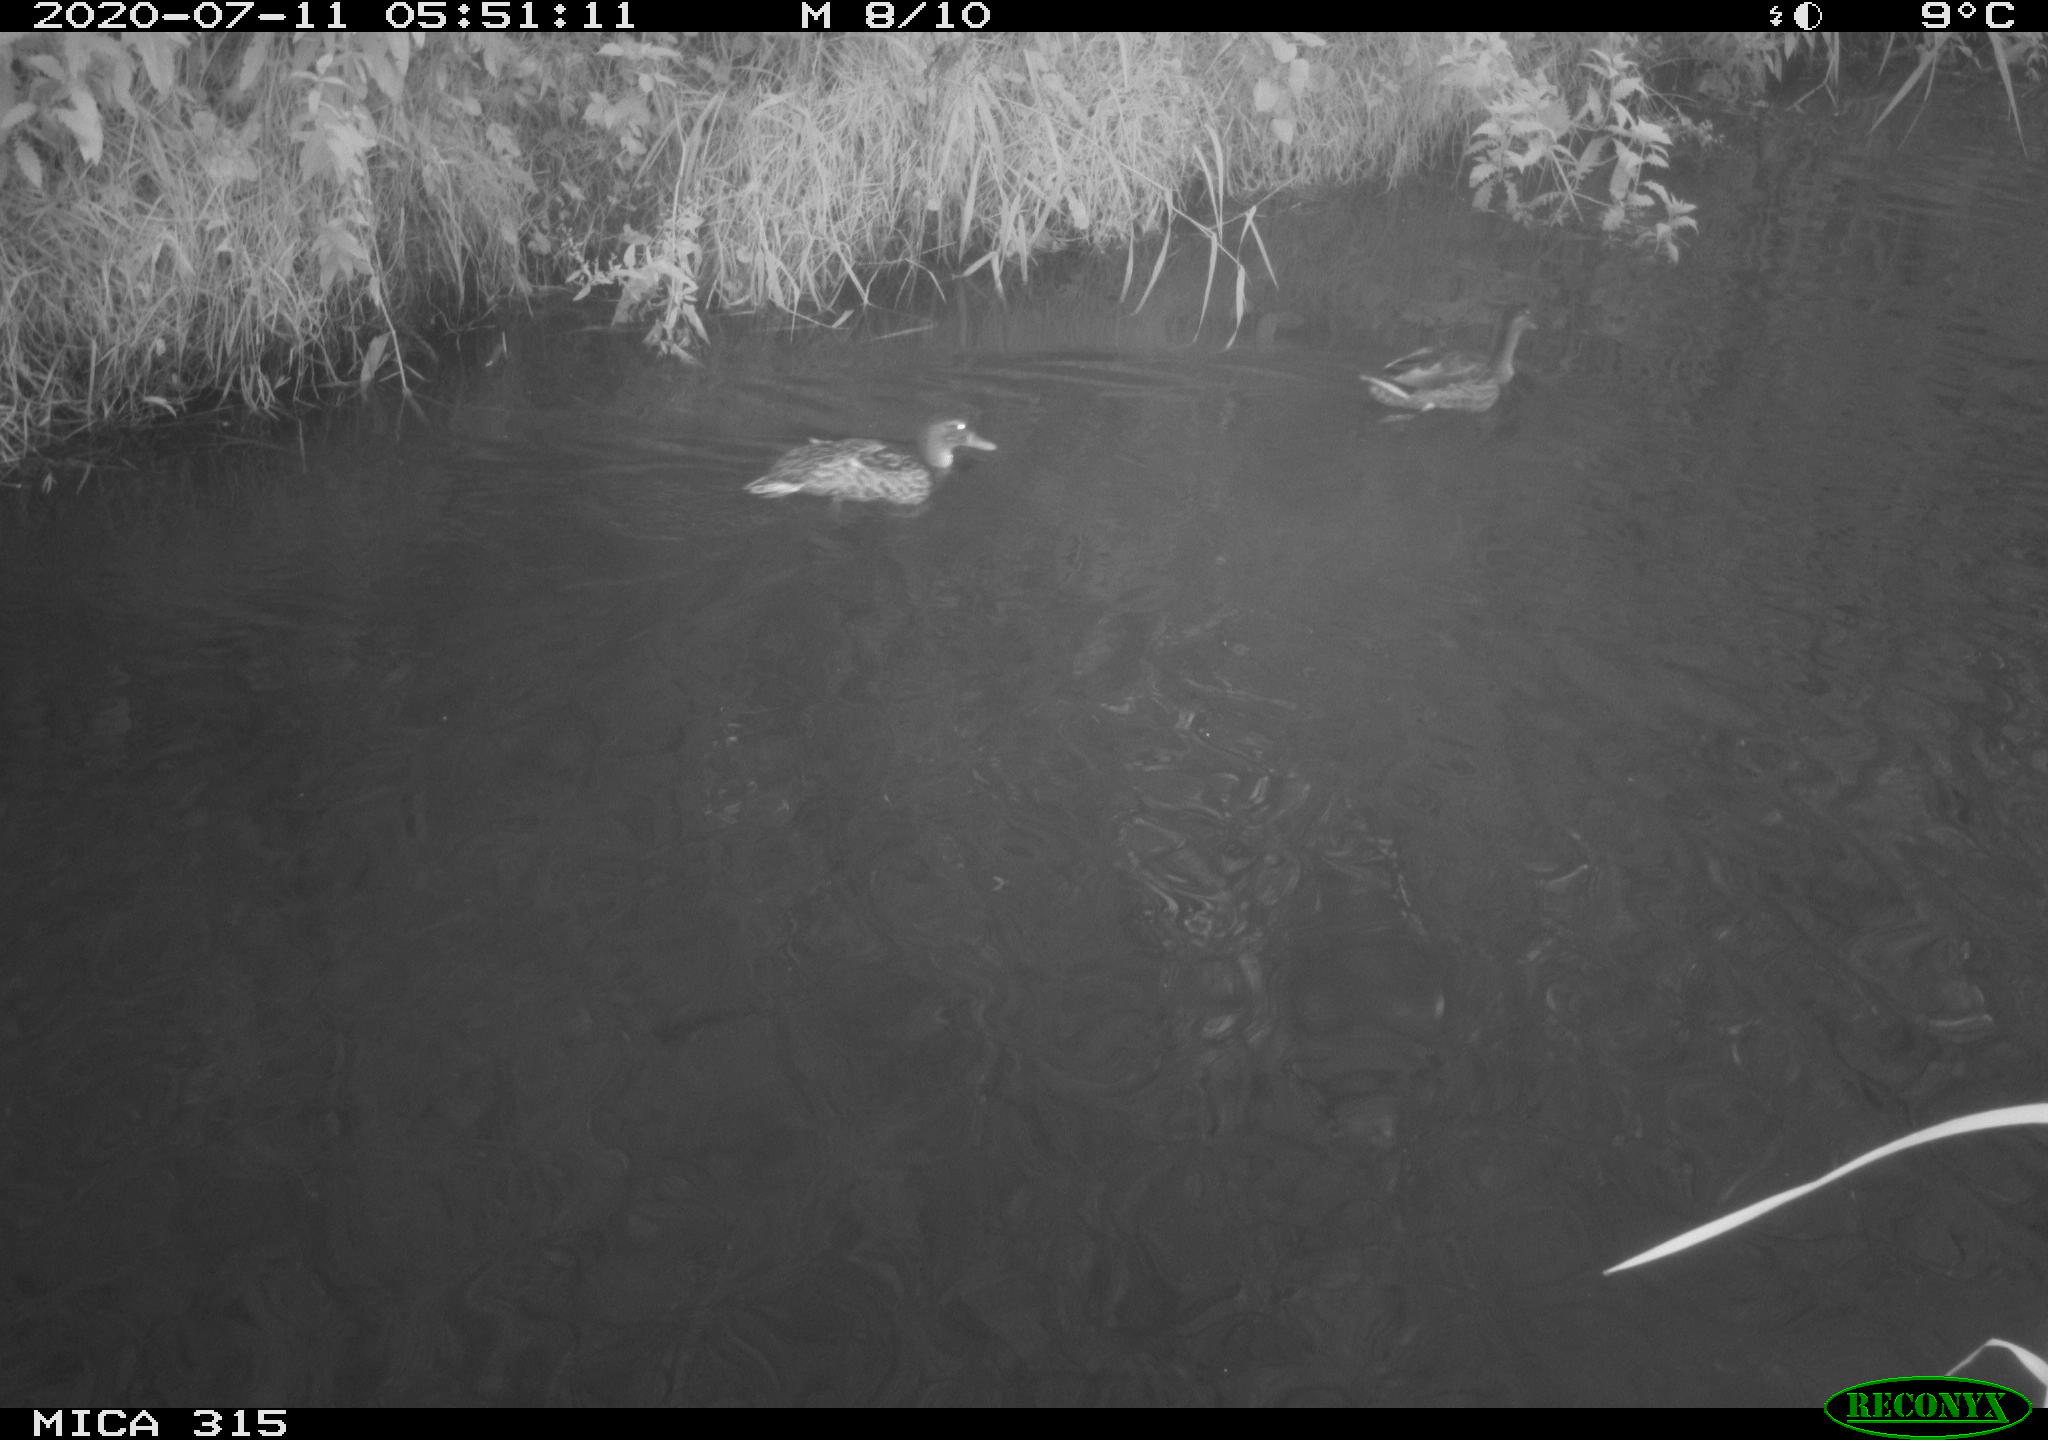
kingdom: Animalia
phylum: Chordata
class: Aves
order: Anseriformes
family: Anatidae
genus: Anas
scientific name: Anas platyrhynchos
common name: Mallard
